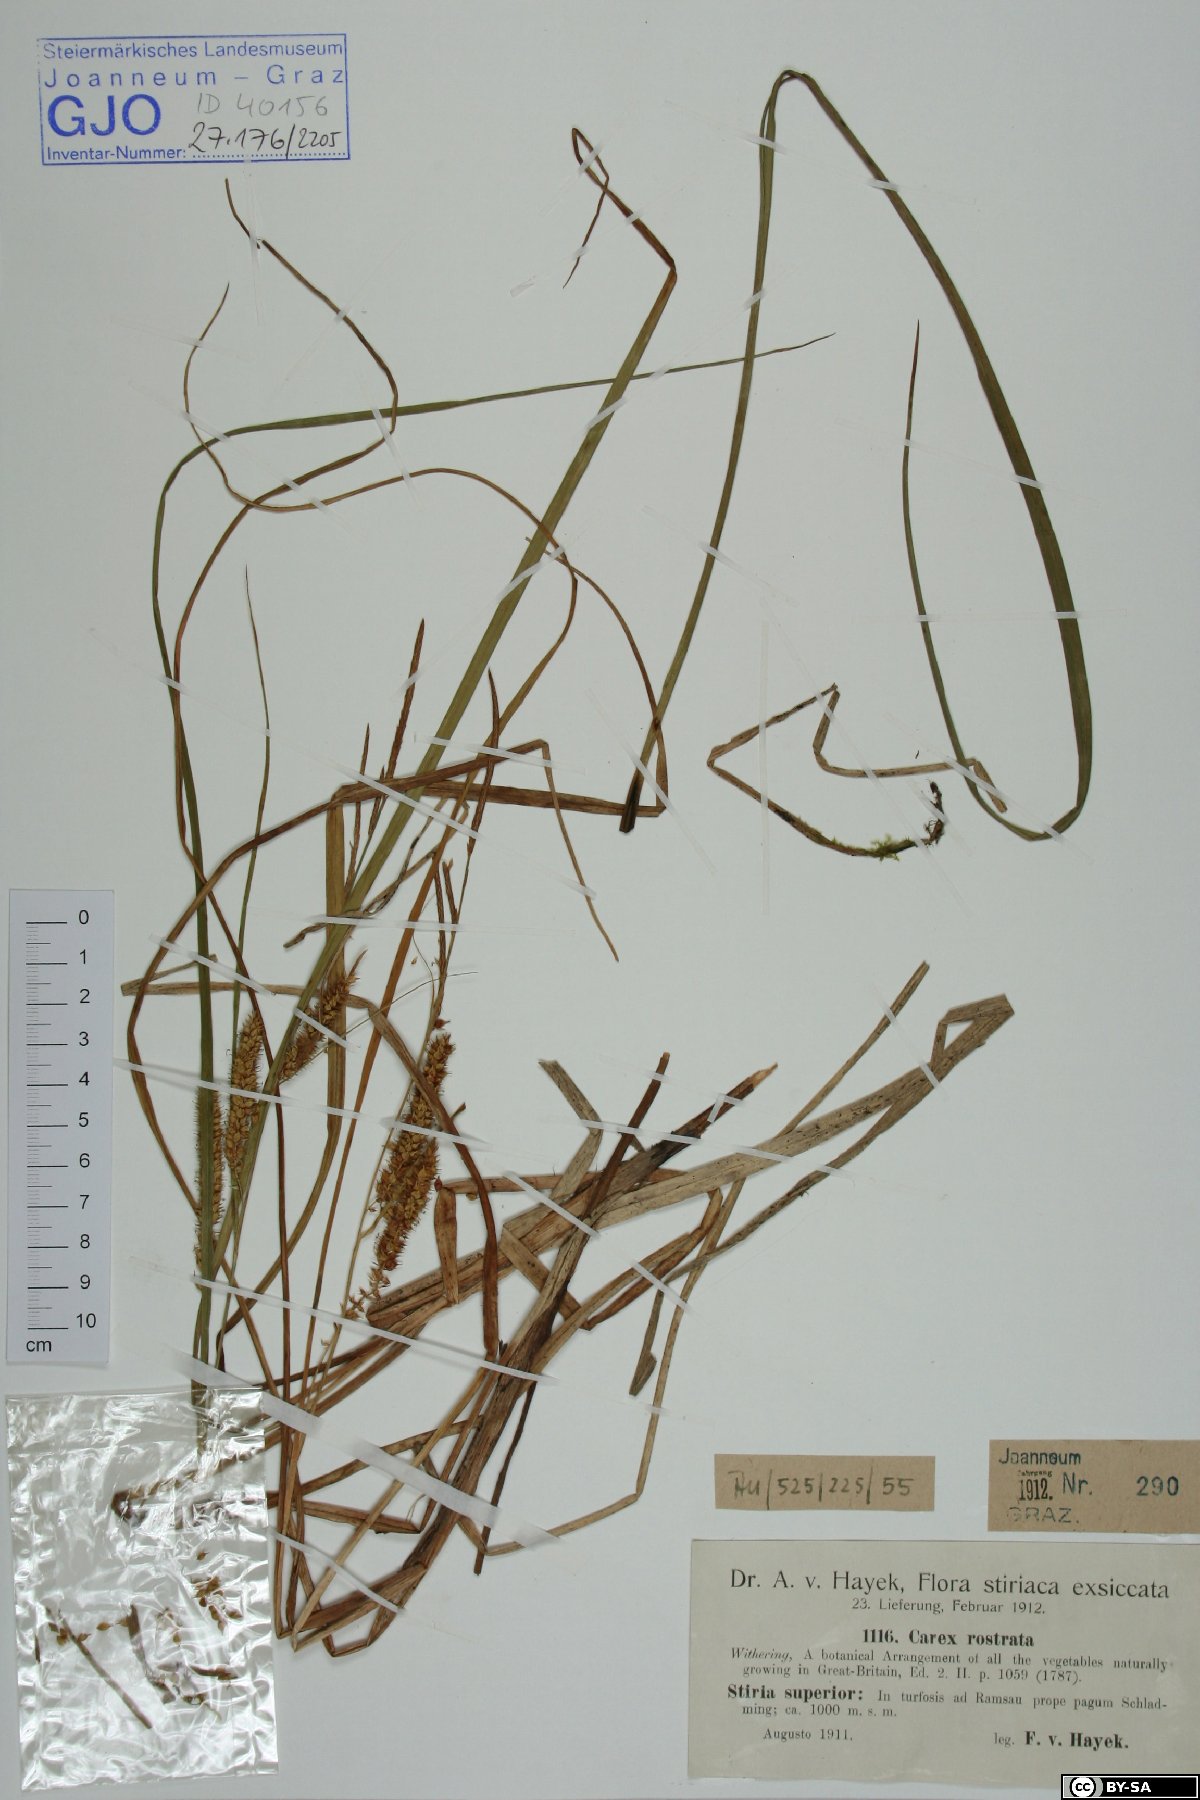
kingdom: Plantae
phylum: Tracheophyta
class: Liliopsida
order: Poales
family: Cyperaceae
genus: Carex
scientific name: Carex rostrata
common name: Bottle sedge
